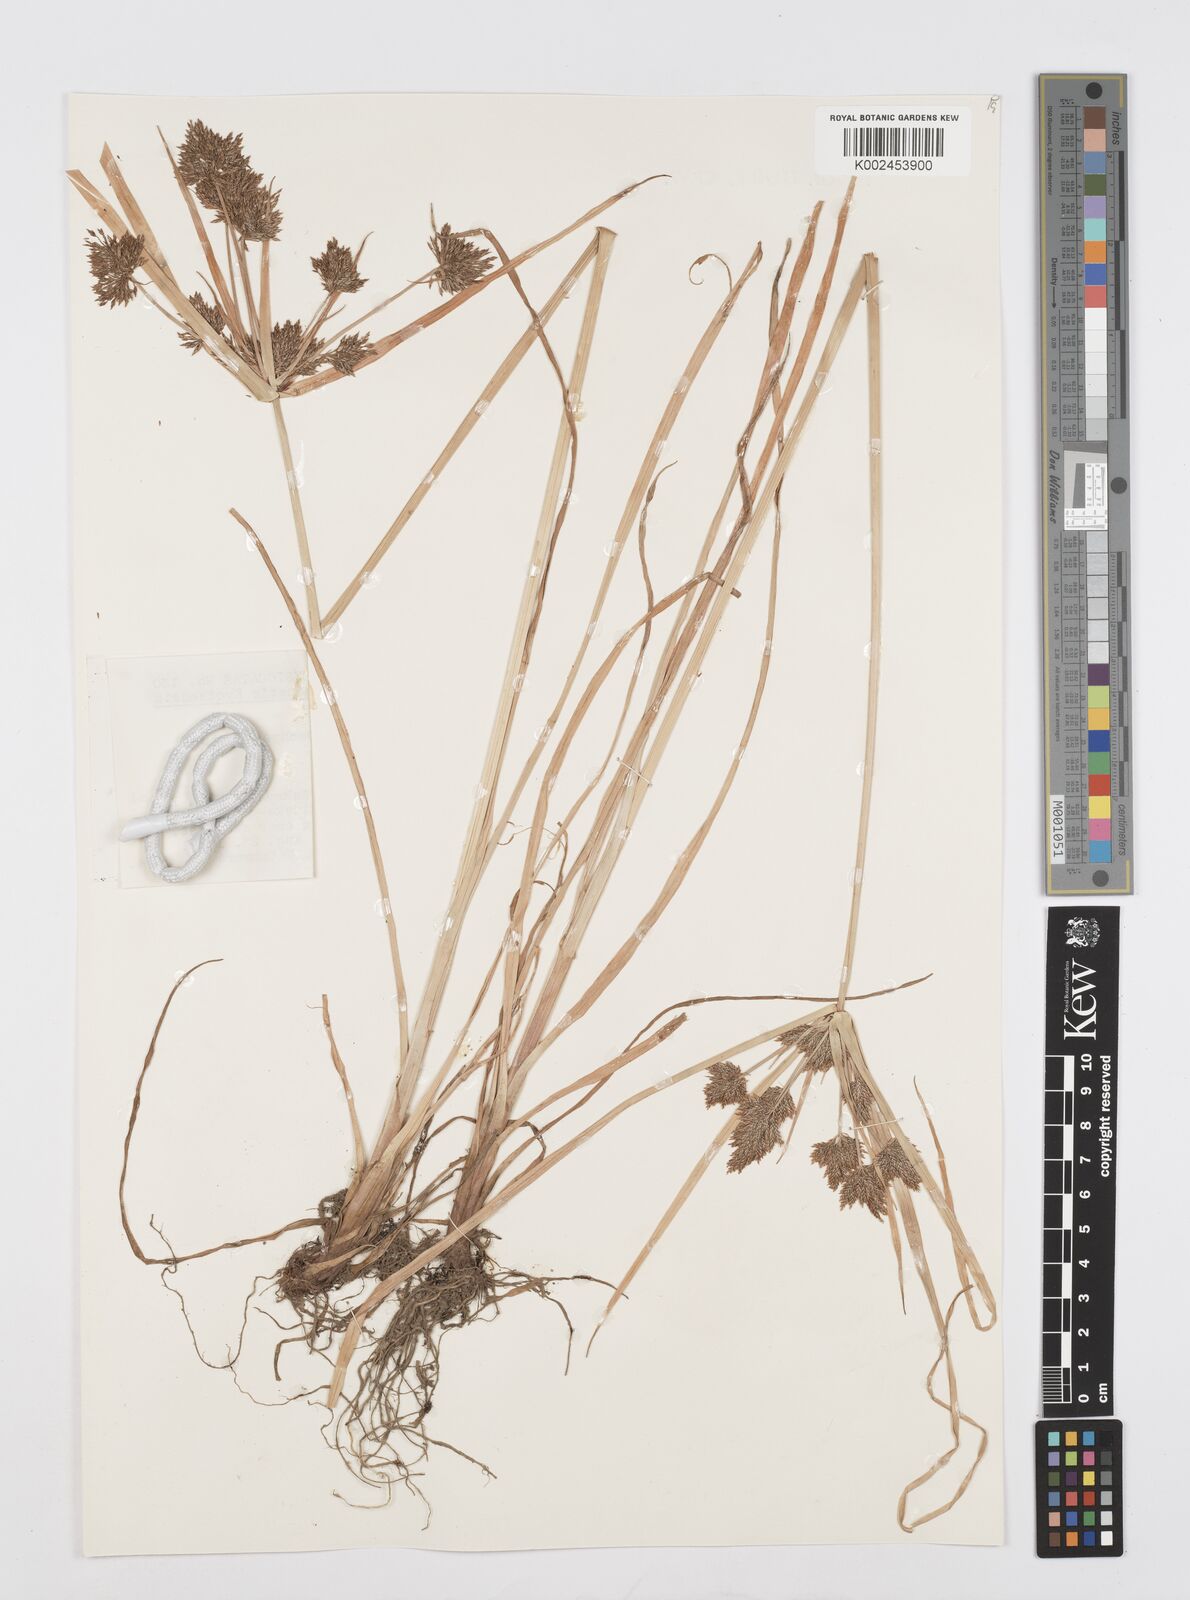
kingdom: Plantae
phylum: Tracheophyta
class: Liliopsida
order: Poales
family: Cyperaceae
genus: Cyperus
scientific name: Cyperus polystachyos
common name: Bunchy flat sedge
